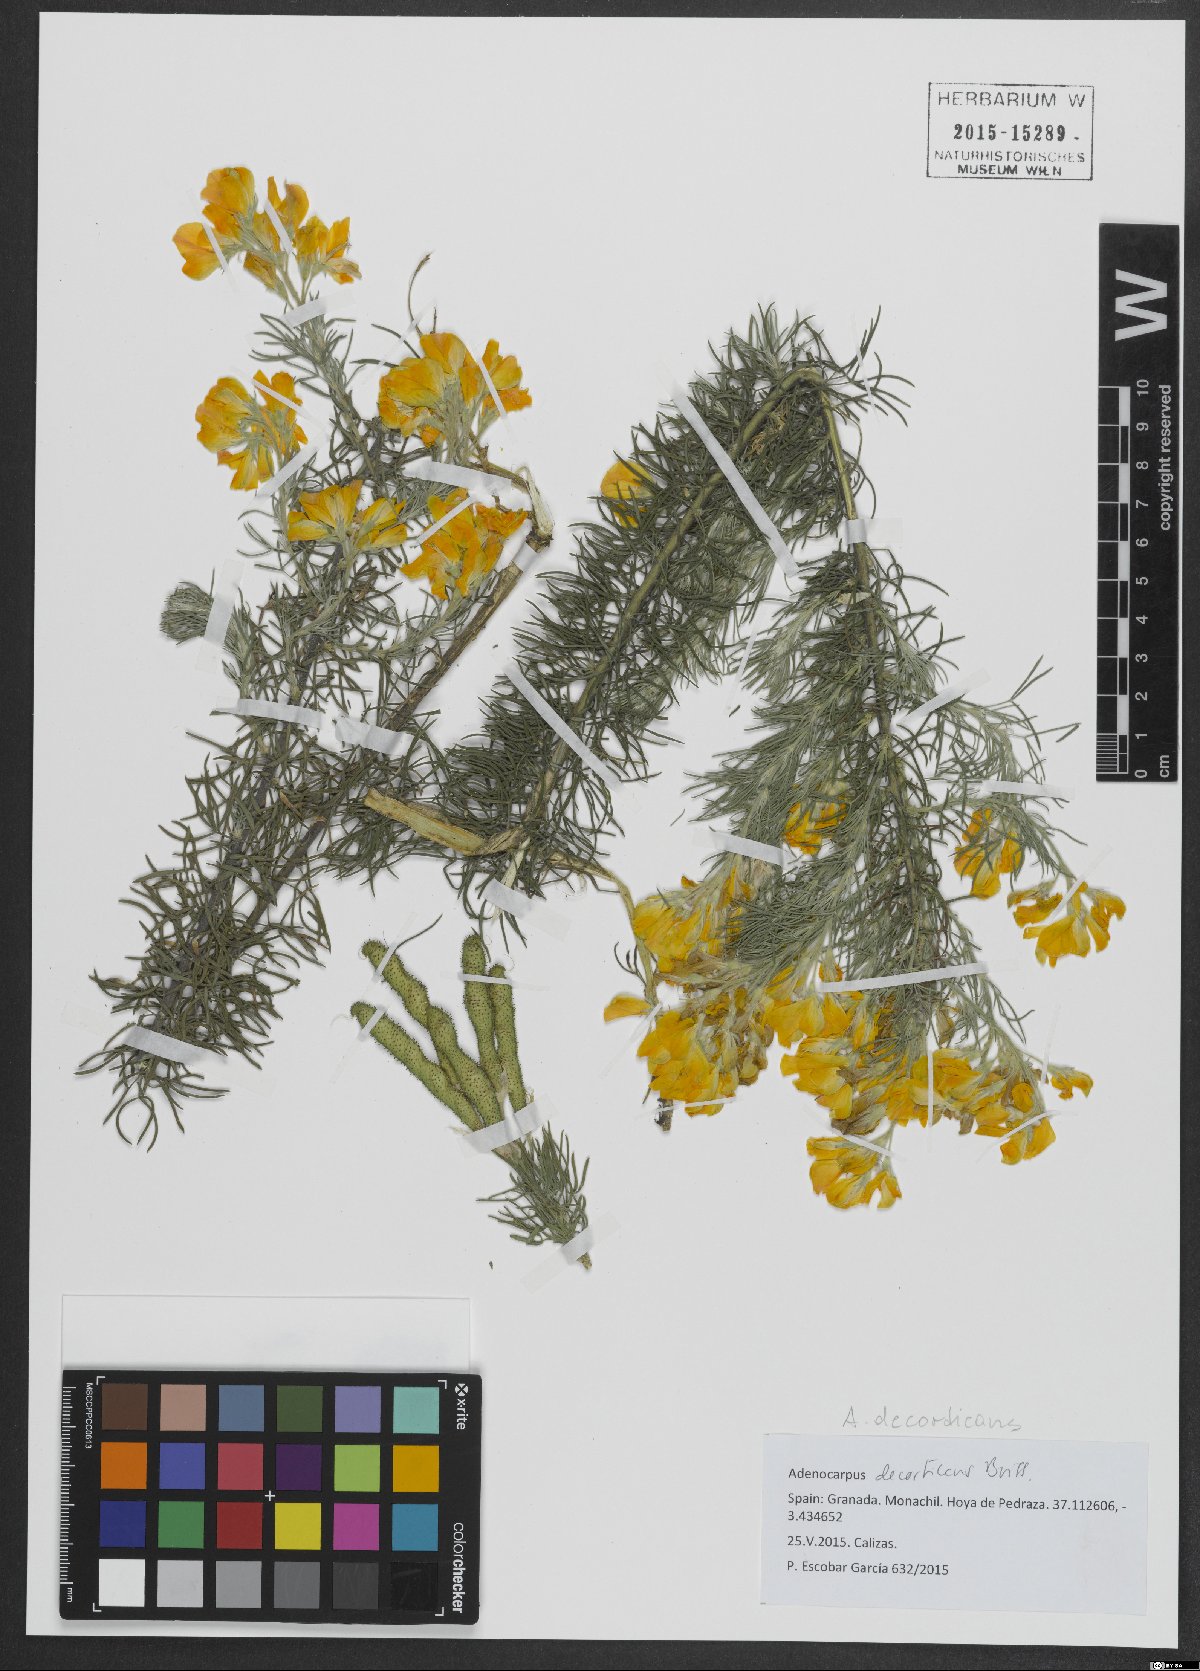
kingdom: Plantae
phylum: Tracheophyta
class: Magnoliopsida
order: Fabales
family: Fabaceae
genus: Adenocarpus
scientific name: Adenocarpus decorticans
